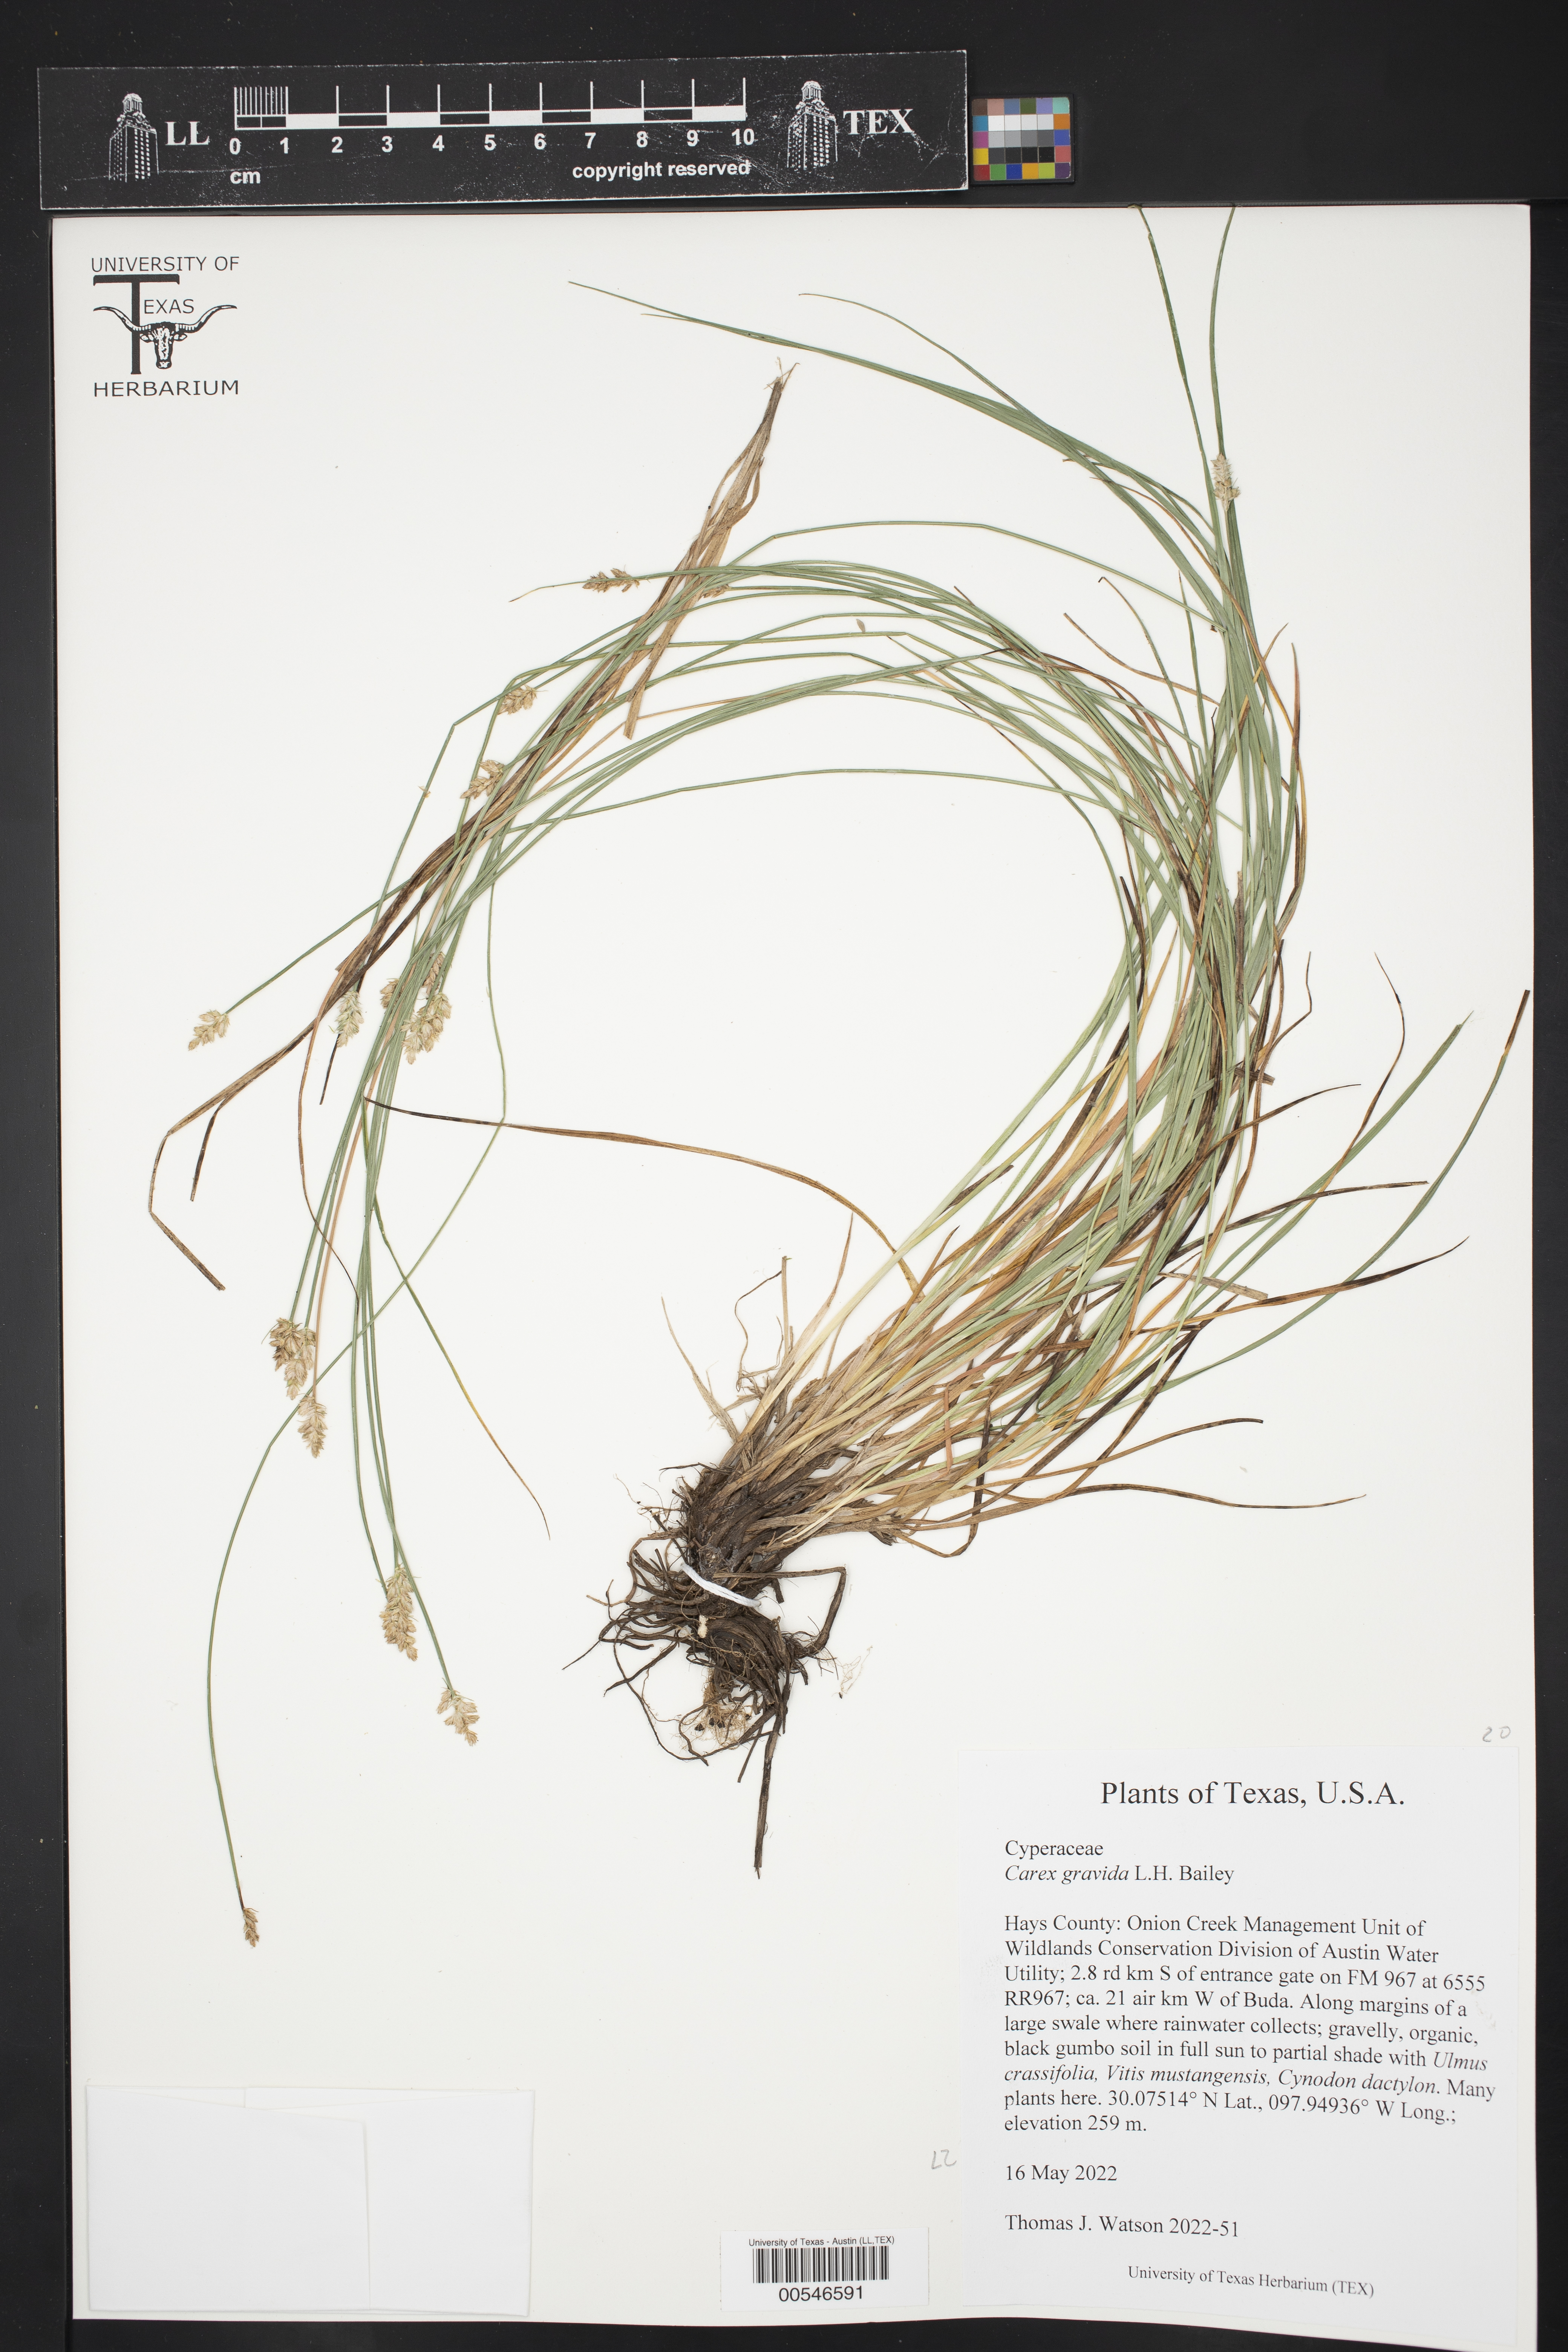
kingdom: Plantae
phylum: Tracheophyta
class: Liliopsida
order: Poales
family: Cyperaceae
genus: Carex
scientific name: Carex gravida
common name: Heavy sedge
